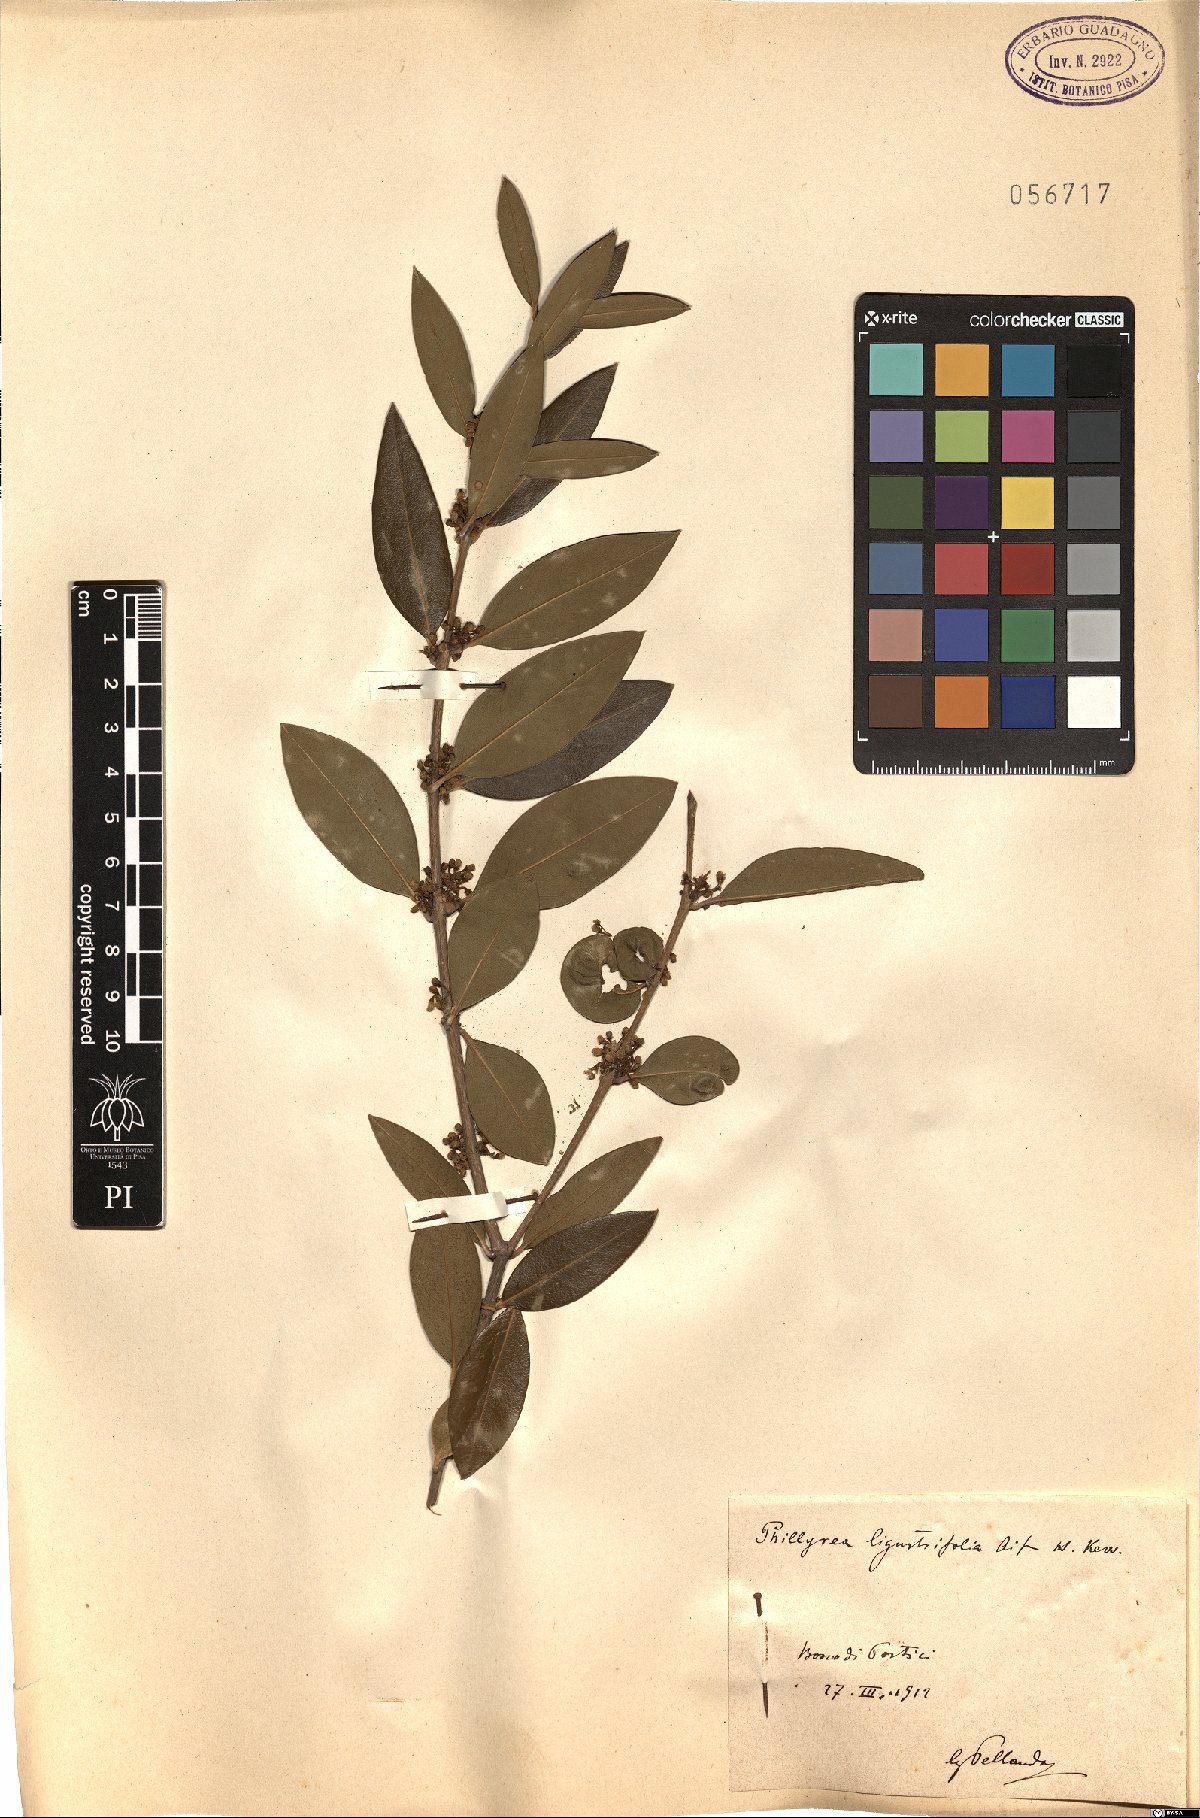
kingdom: Plantae
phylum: Tracheophyta
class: Magnoliopsida
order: Lamiales
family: Oleaceae
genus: Phillyrea
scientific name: Phillyrea latifolia
